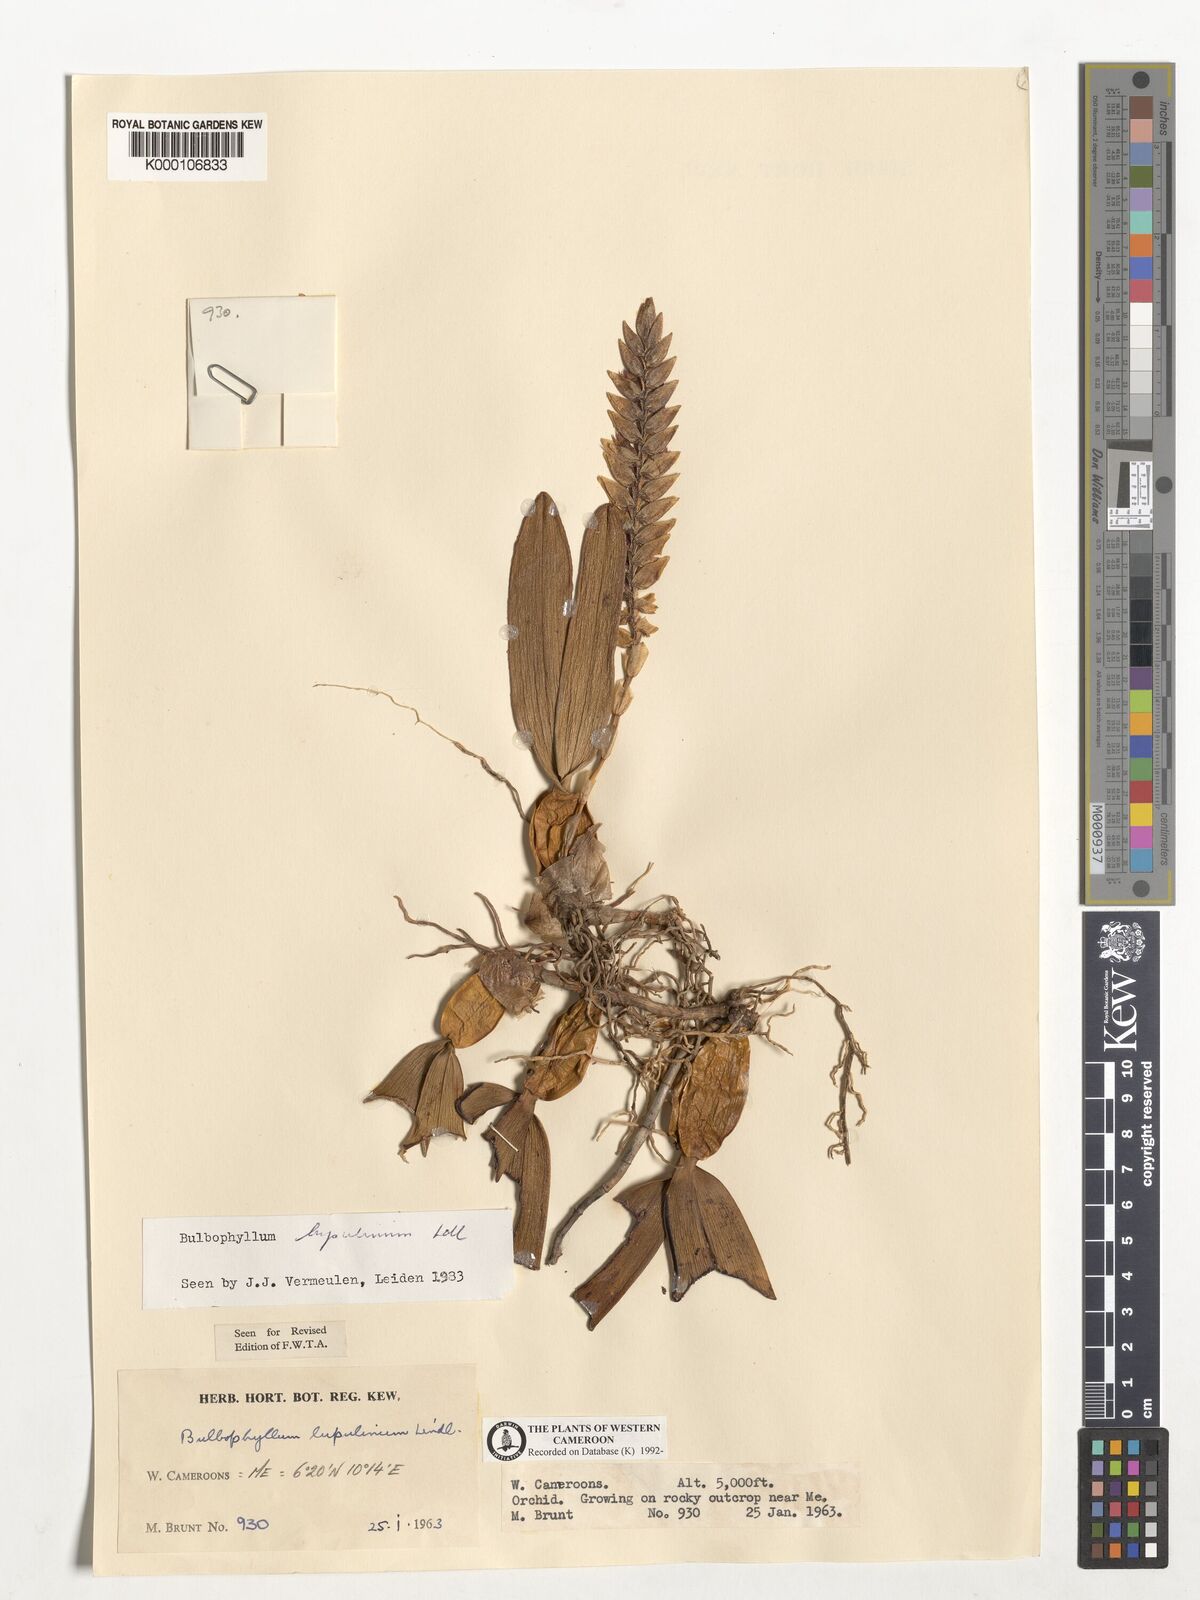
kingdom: Plantae
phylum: Tracheophyta
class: Liliopsida
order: Asparagales
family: Orchidaceae
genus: Bulbophyllum
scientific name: Bulbophyllum lupulinum
